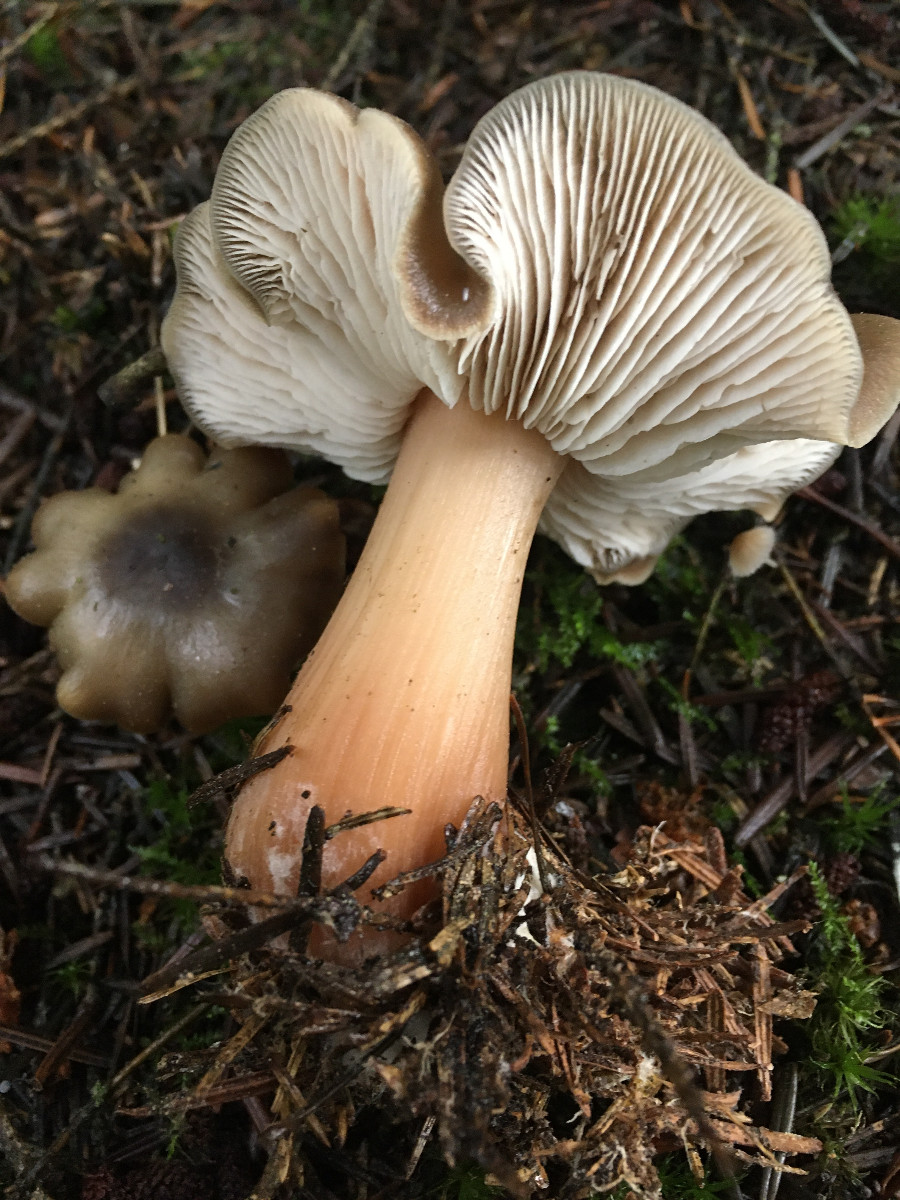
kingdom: Fungi
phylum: Basidiomycota
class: Agaricomycetes
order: Agaricales
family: Omphalotaceae
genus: Rhodocollybia
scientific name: Rhodocollybia asema
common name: horngrå fladhat
